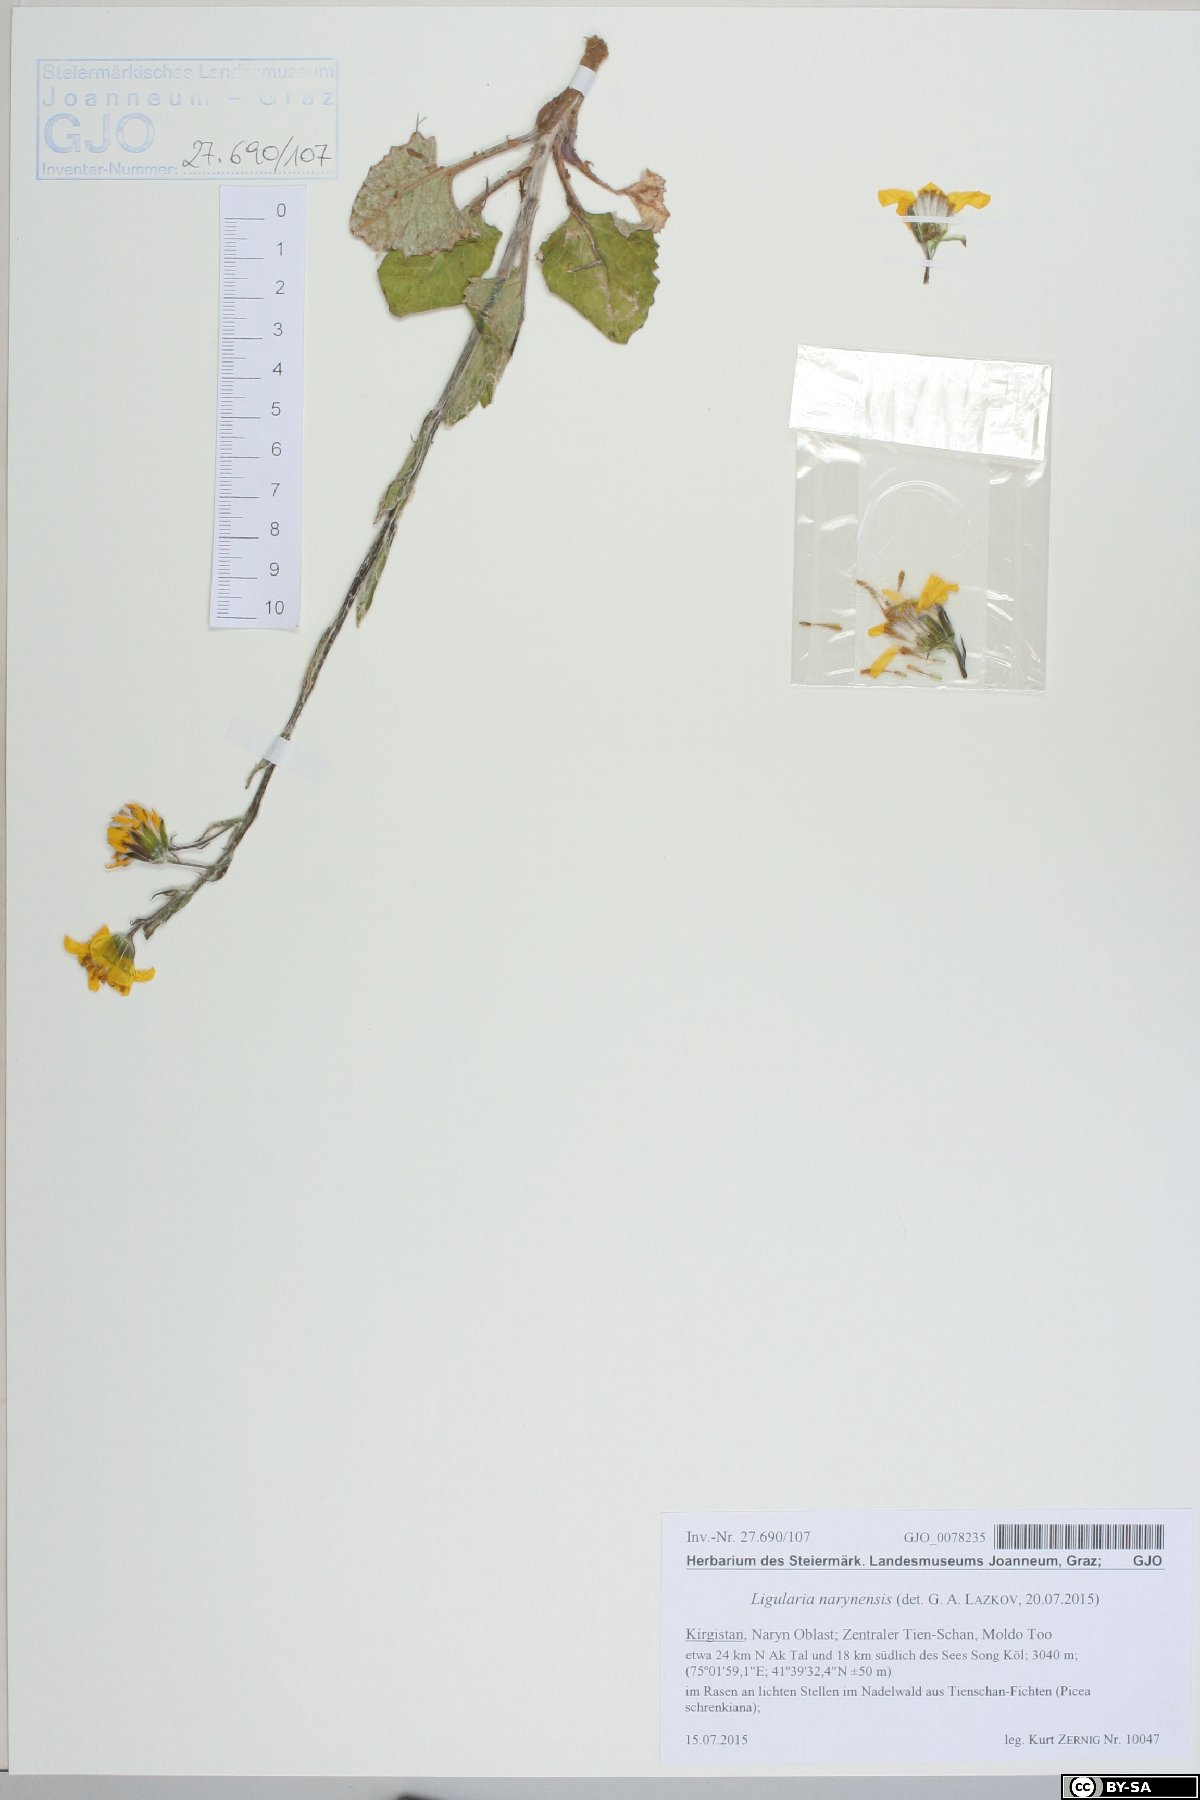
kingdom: Plantae
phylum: Tracheophyta
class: Magnoliopsida
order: Asterales
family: Asteraceae
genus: Vickifunkia
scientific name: Vickifunkia narynensis
